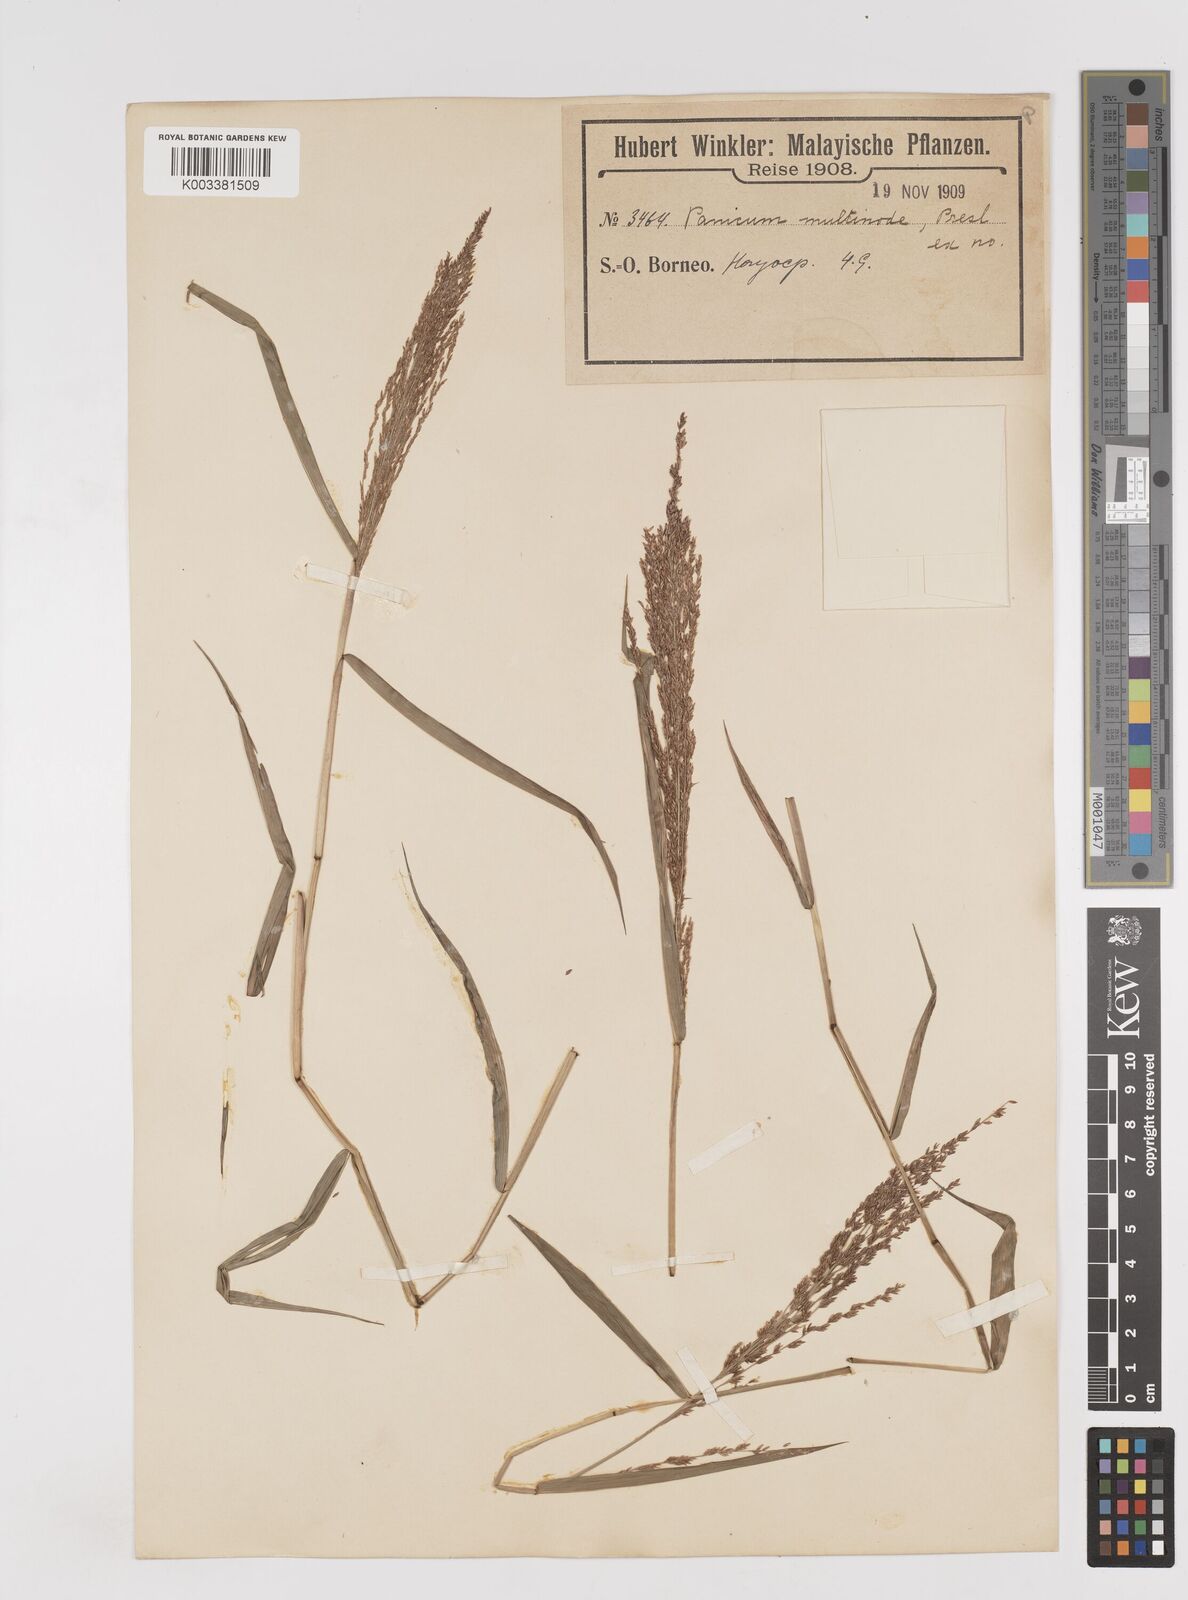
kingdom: Plantae
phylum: Tracheophyta
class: Liliopsida
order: Poales
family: Poaceae
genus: Ottochloa
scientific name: Ottochloa nodosa
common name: Slender-panic grass
